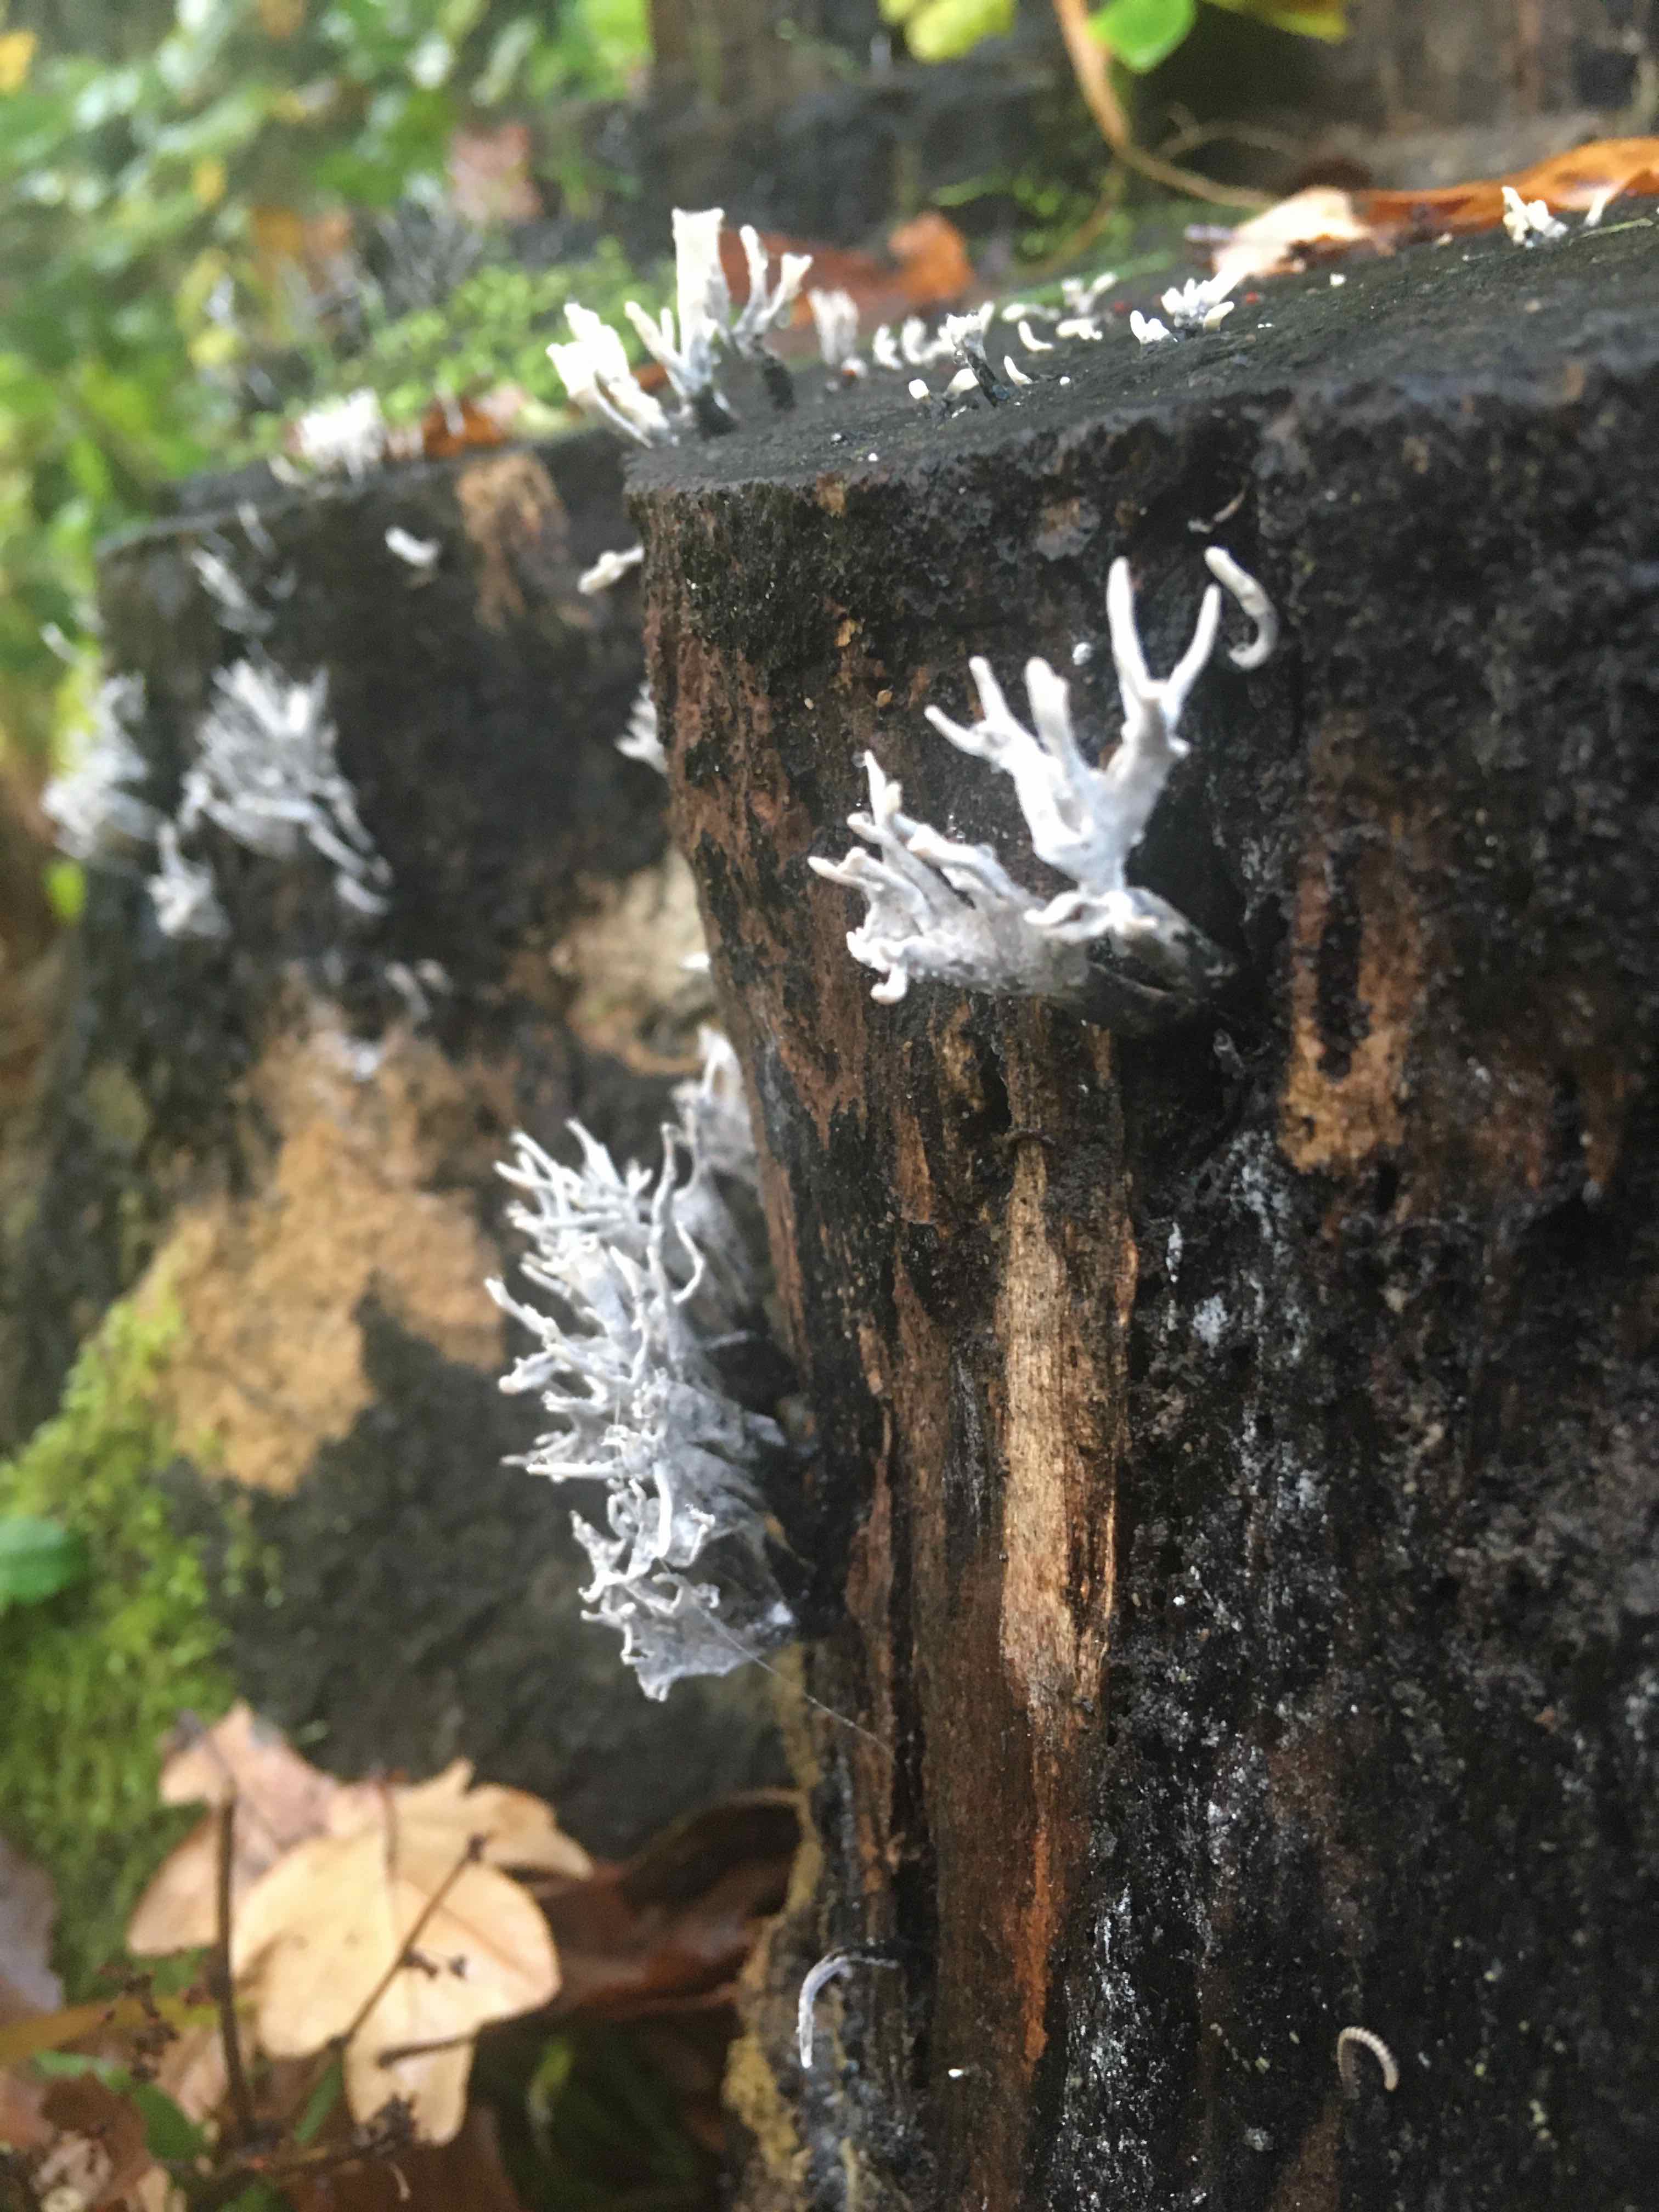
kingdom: Fungi
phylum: Ascomycota
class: Sordariomycetes
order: Xylariales
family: Xylariaceae
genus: Xylaria
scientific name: Xylaria hypoxylon
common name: grenet stødsvamp
